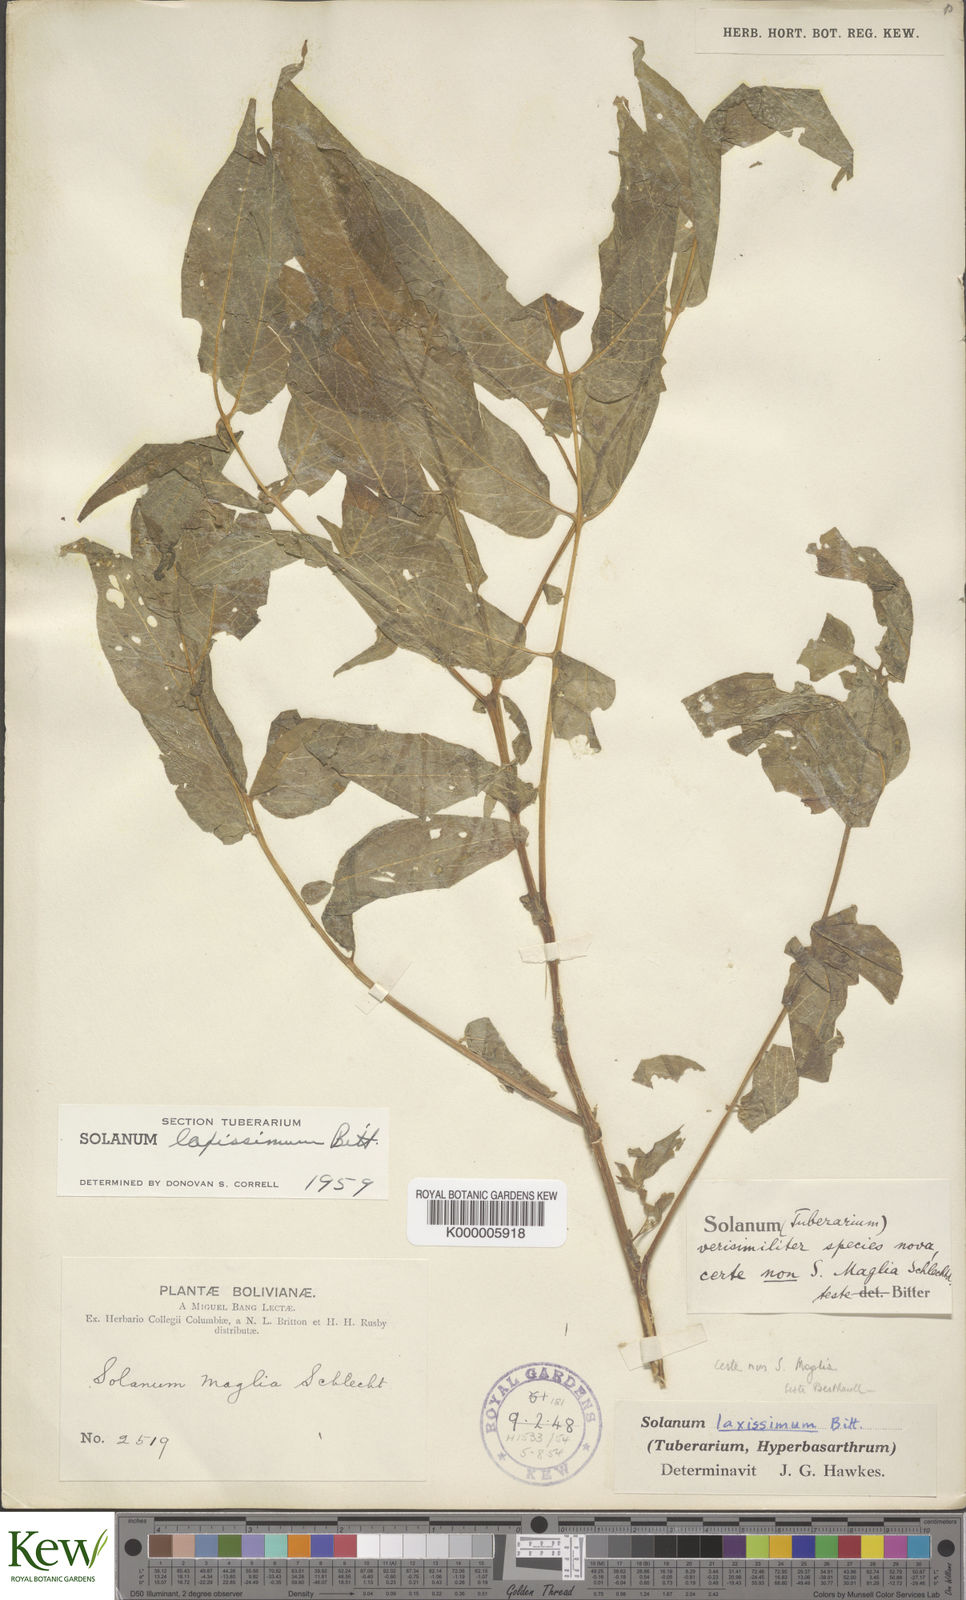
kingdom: Plantae
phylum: Tracheophyta
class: Magnoliopsida
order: Solanales
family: Solanaceae
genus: Solanum
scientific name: Solanum
